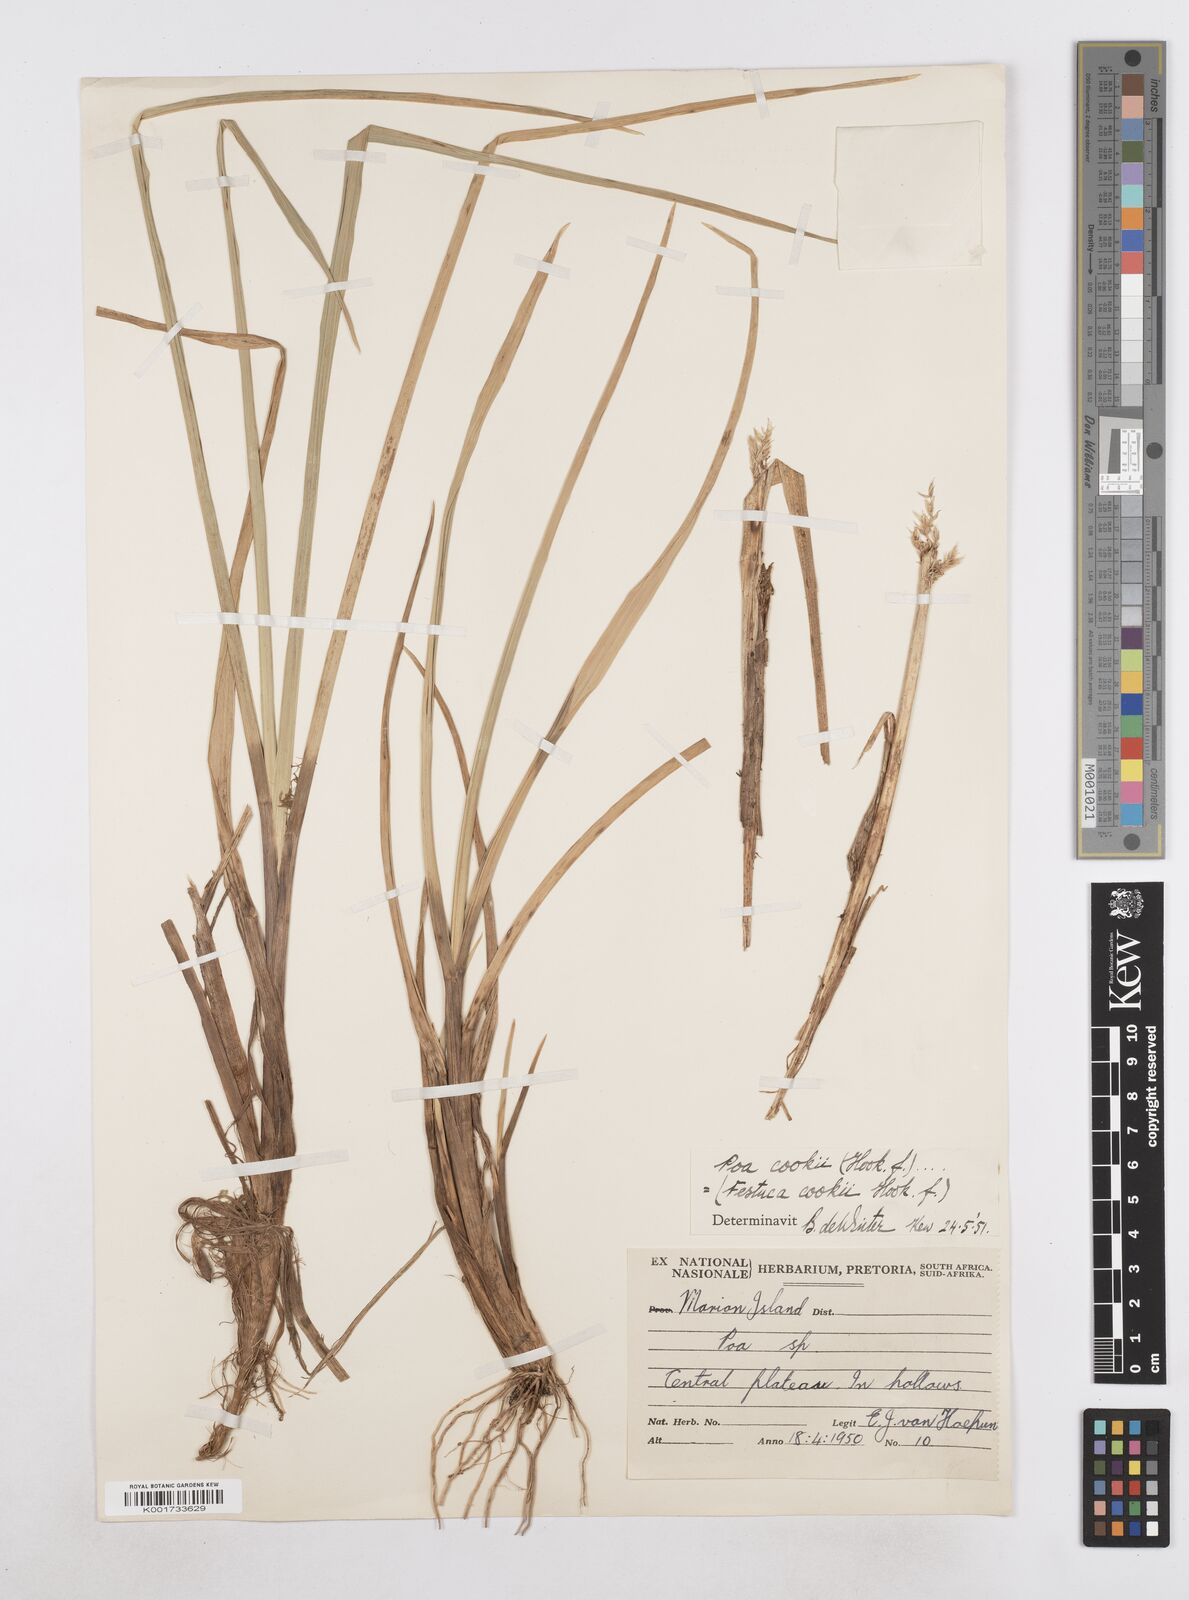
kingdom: Plantae
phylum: Tracheophyta
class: Liliopsida
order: Poales
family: Poaceae
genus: Poa
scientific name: Poa cookii
